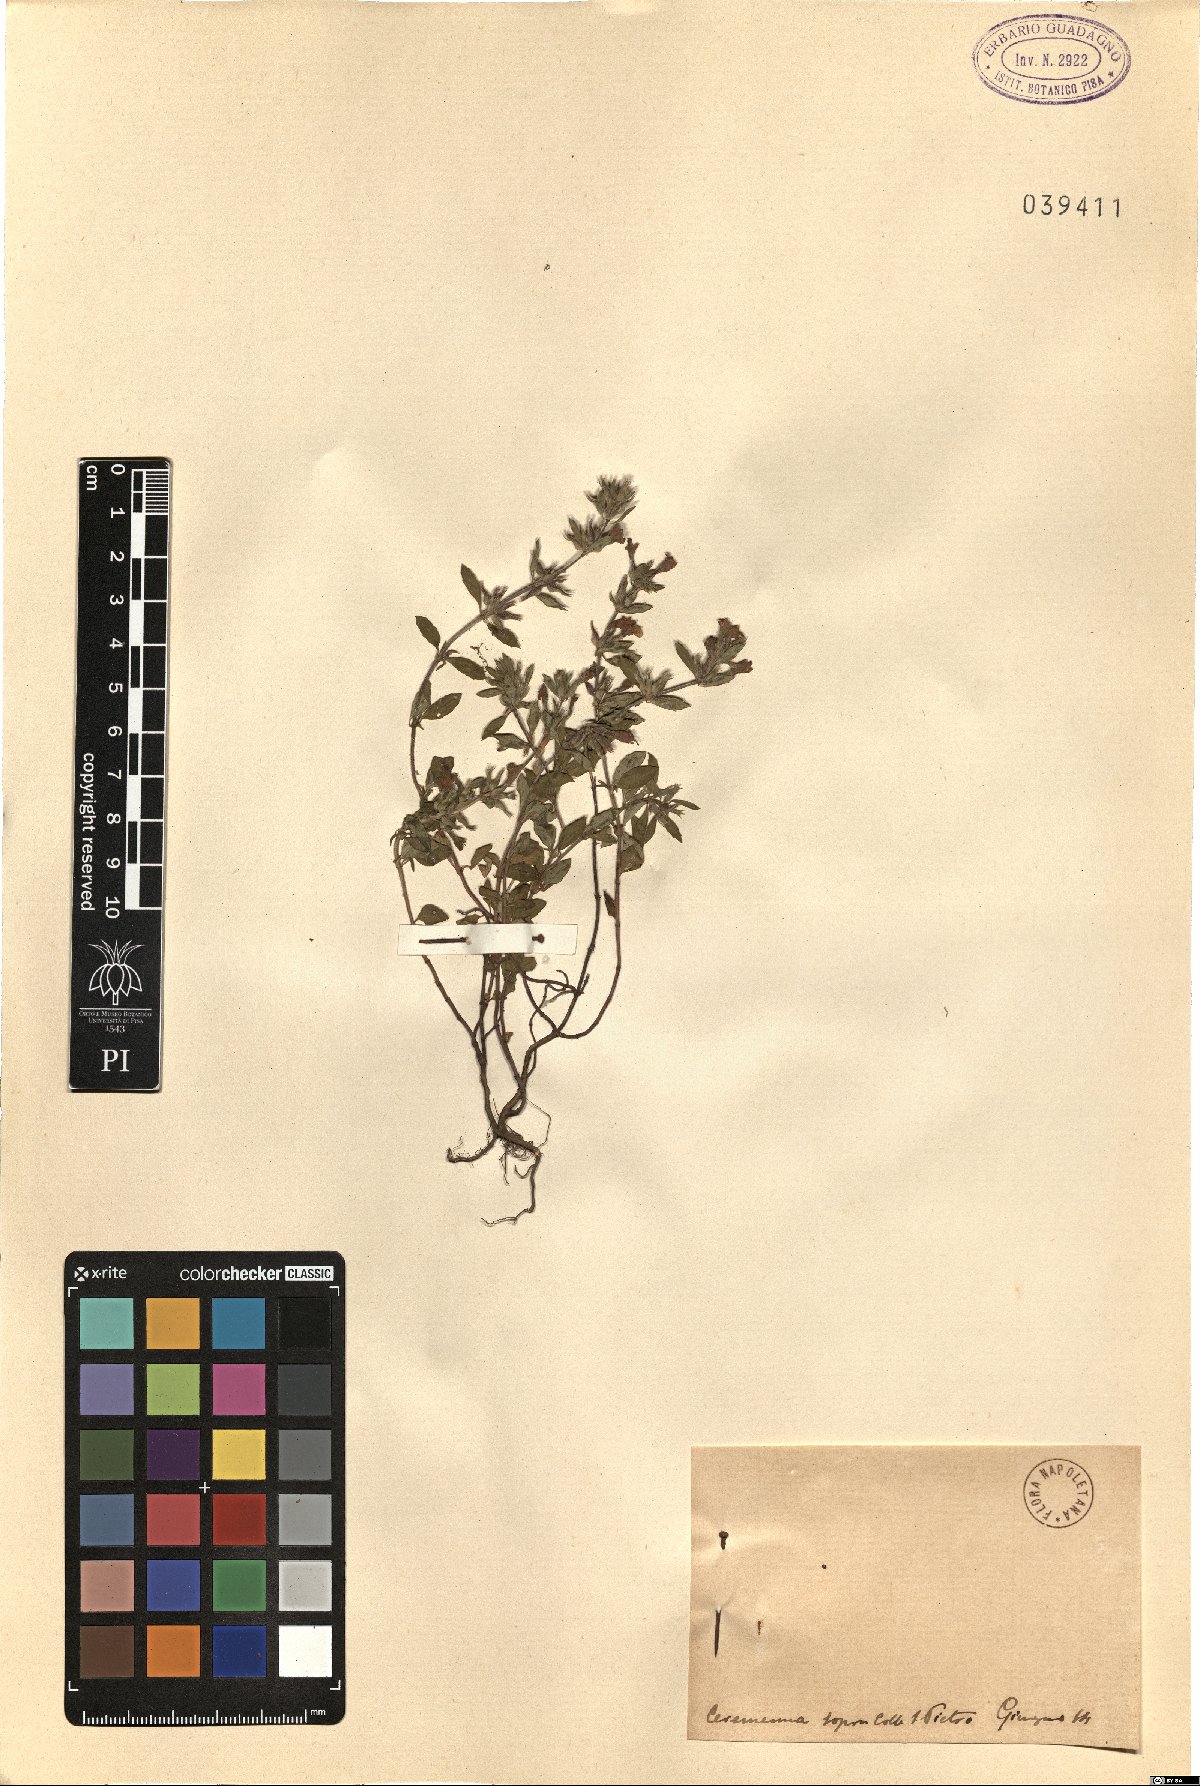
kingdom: Plantae
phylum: Tracheophyta
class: Magnoliopsida
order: Lamiales
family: Lamiaceae
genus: Calamintha
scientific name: Calamintha
